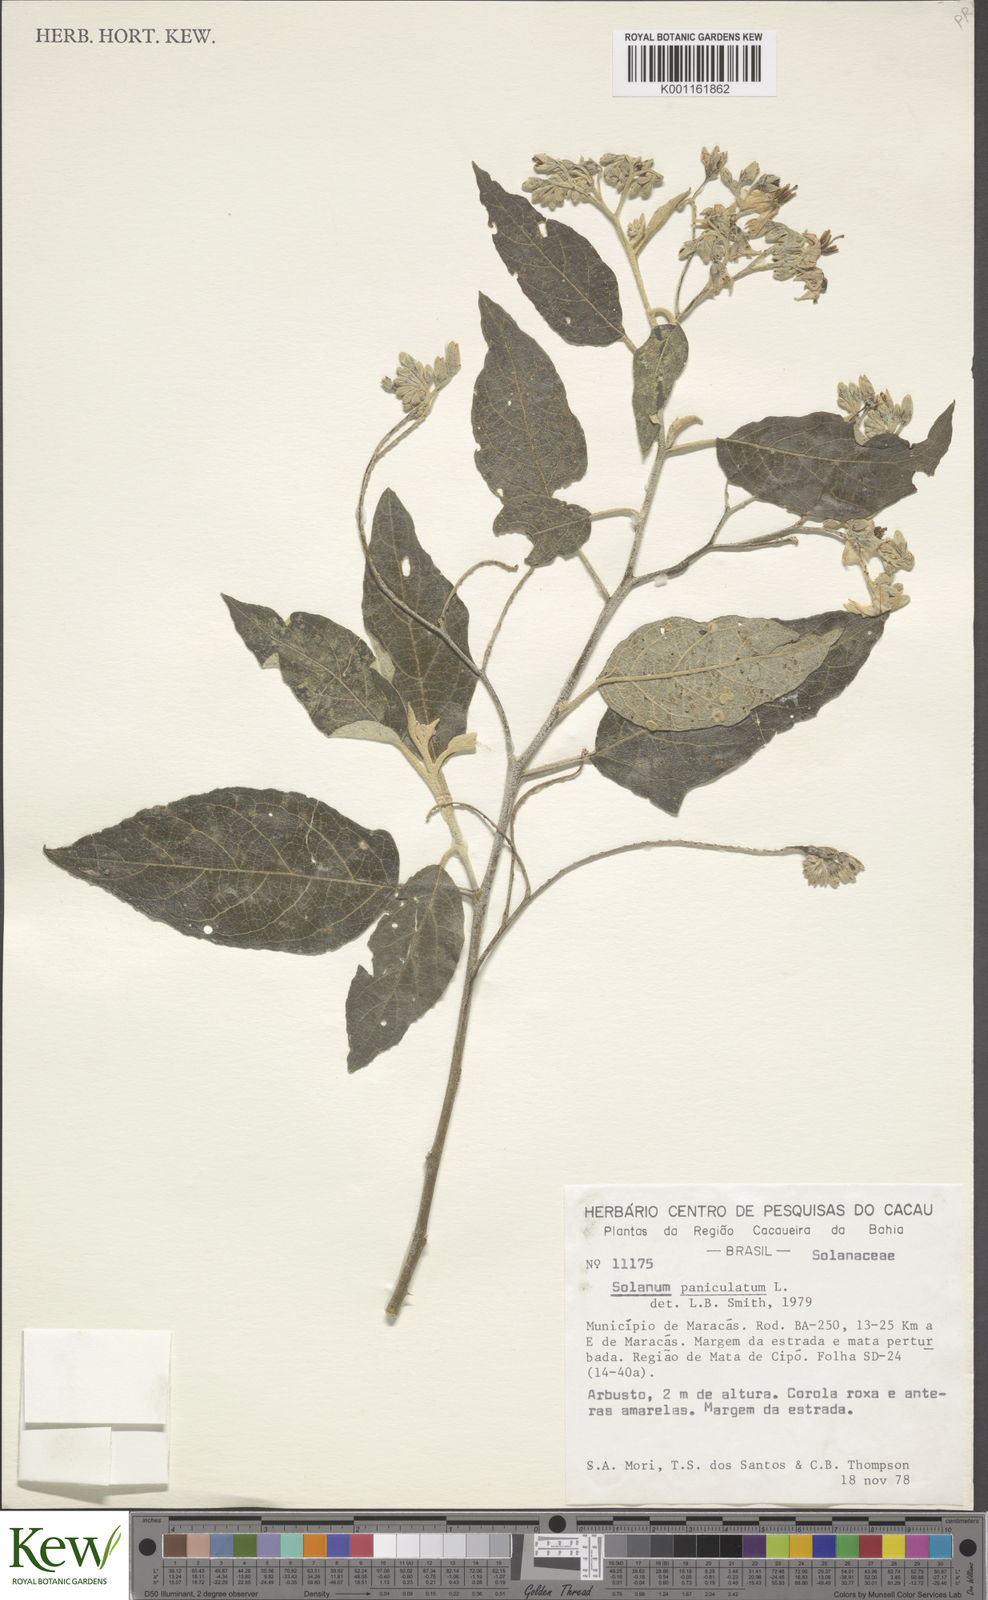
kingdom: Plantae
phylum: Tracheophyta
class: Magnoliopsida
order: Solanales
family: Solanaceae
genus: Solanum
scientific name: Solanum paniculatum
